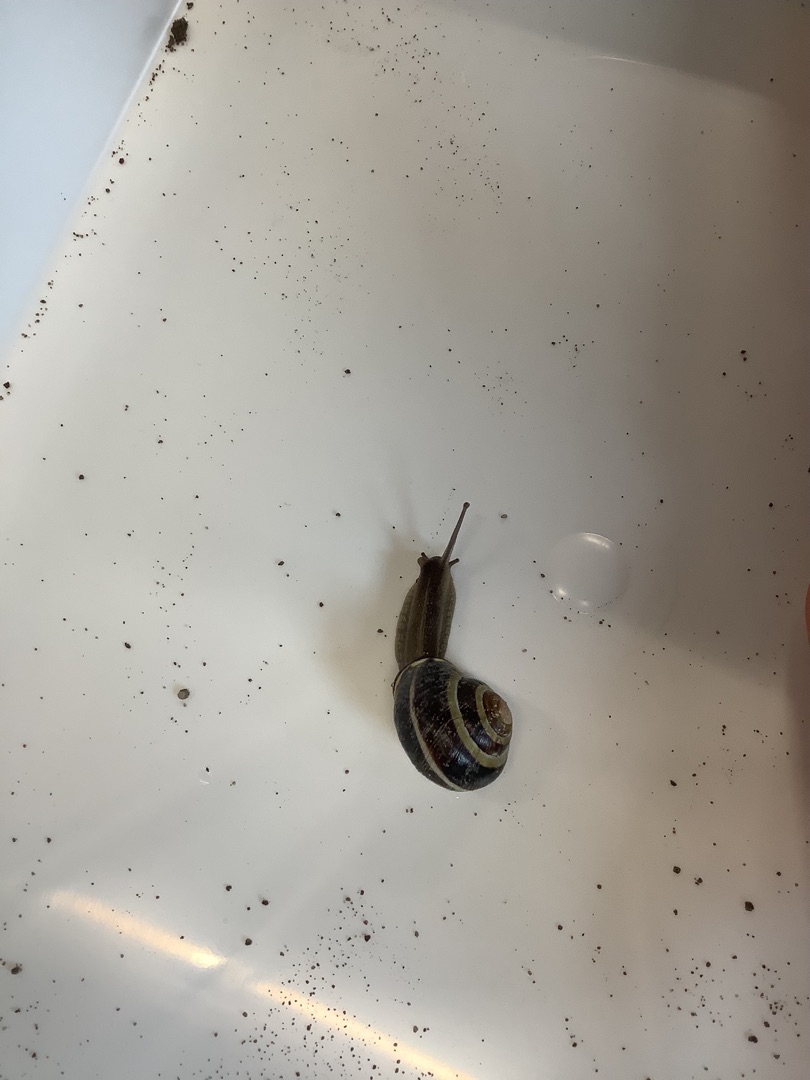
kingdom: Animalia
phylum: Mollusca
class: Gastropoda
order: Stylommatophora
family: Helicidae
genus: Cepaea
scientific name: Cepaea nemoralis
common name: Lundsnegl
